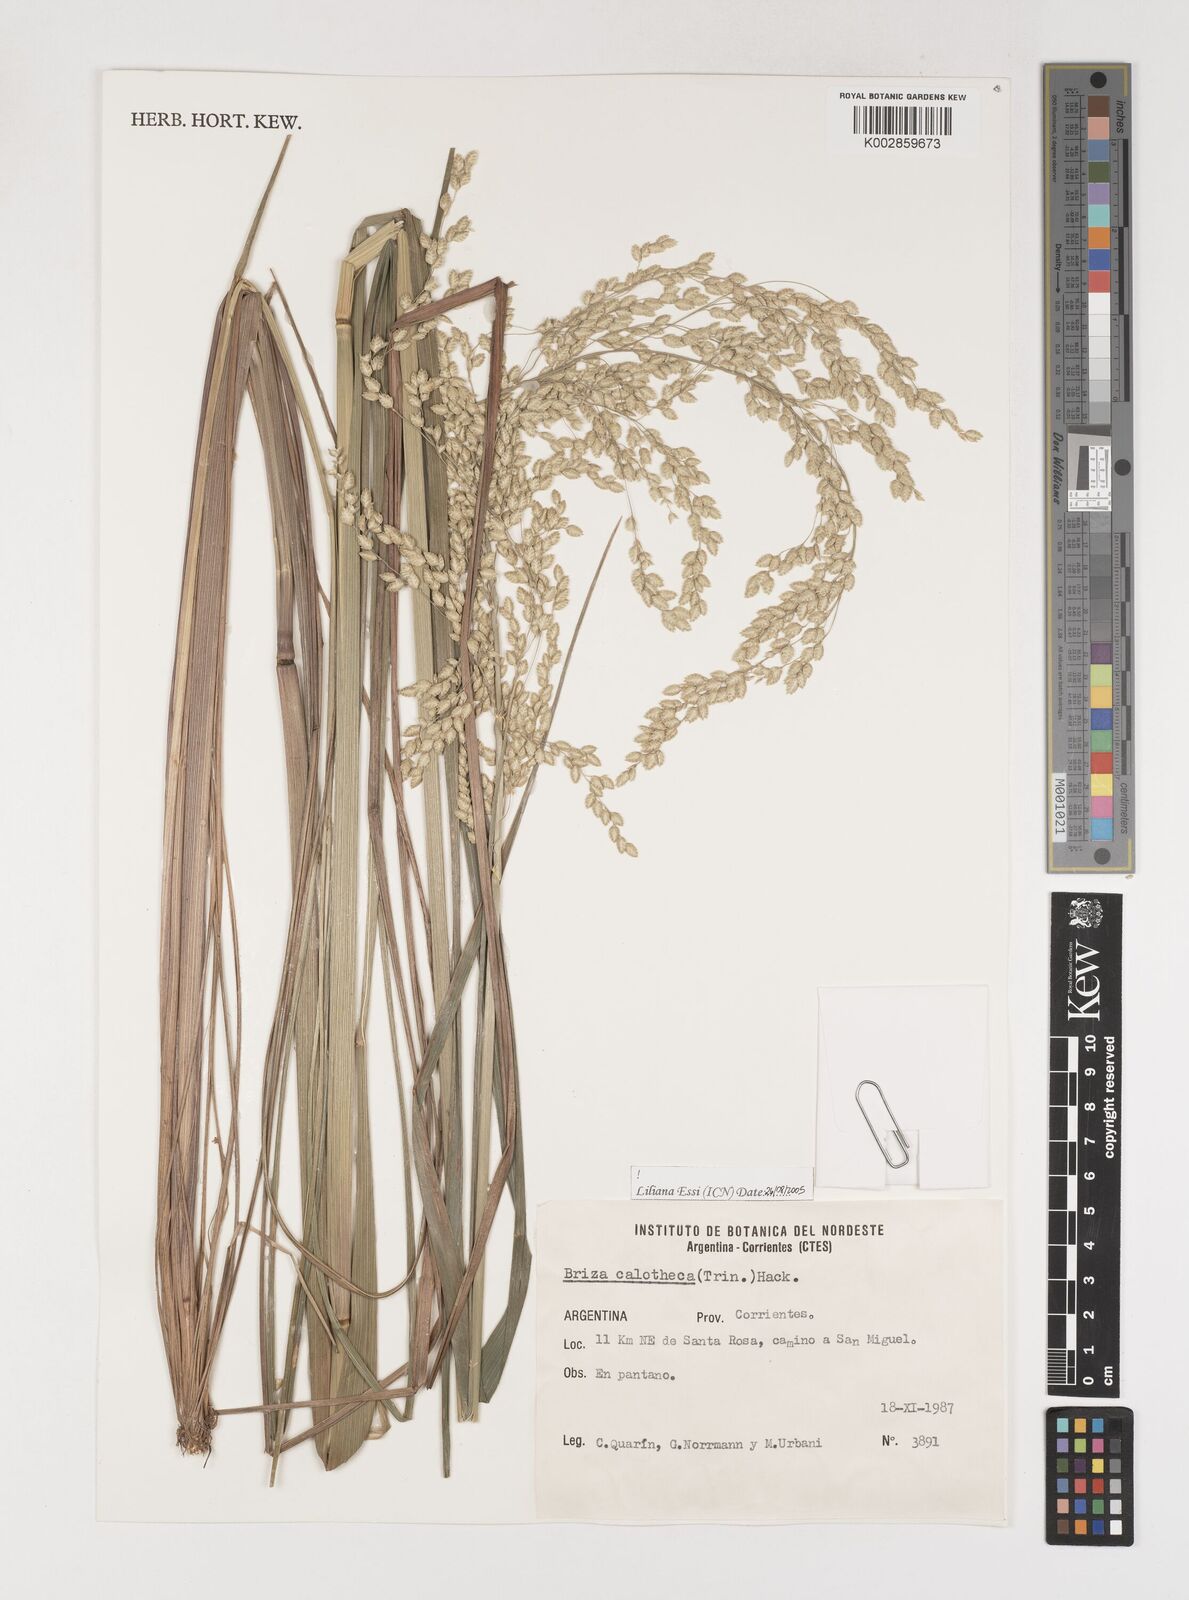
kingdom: Plantae
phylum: Tracheophyta
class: Liliopsida
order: Poales
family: Poaceae
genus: Poidium
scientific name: Poidium calotheca
